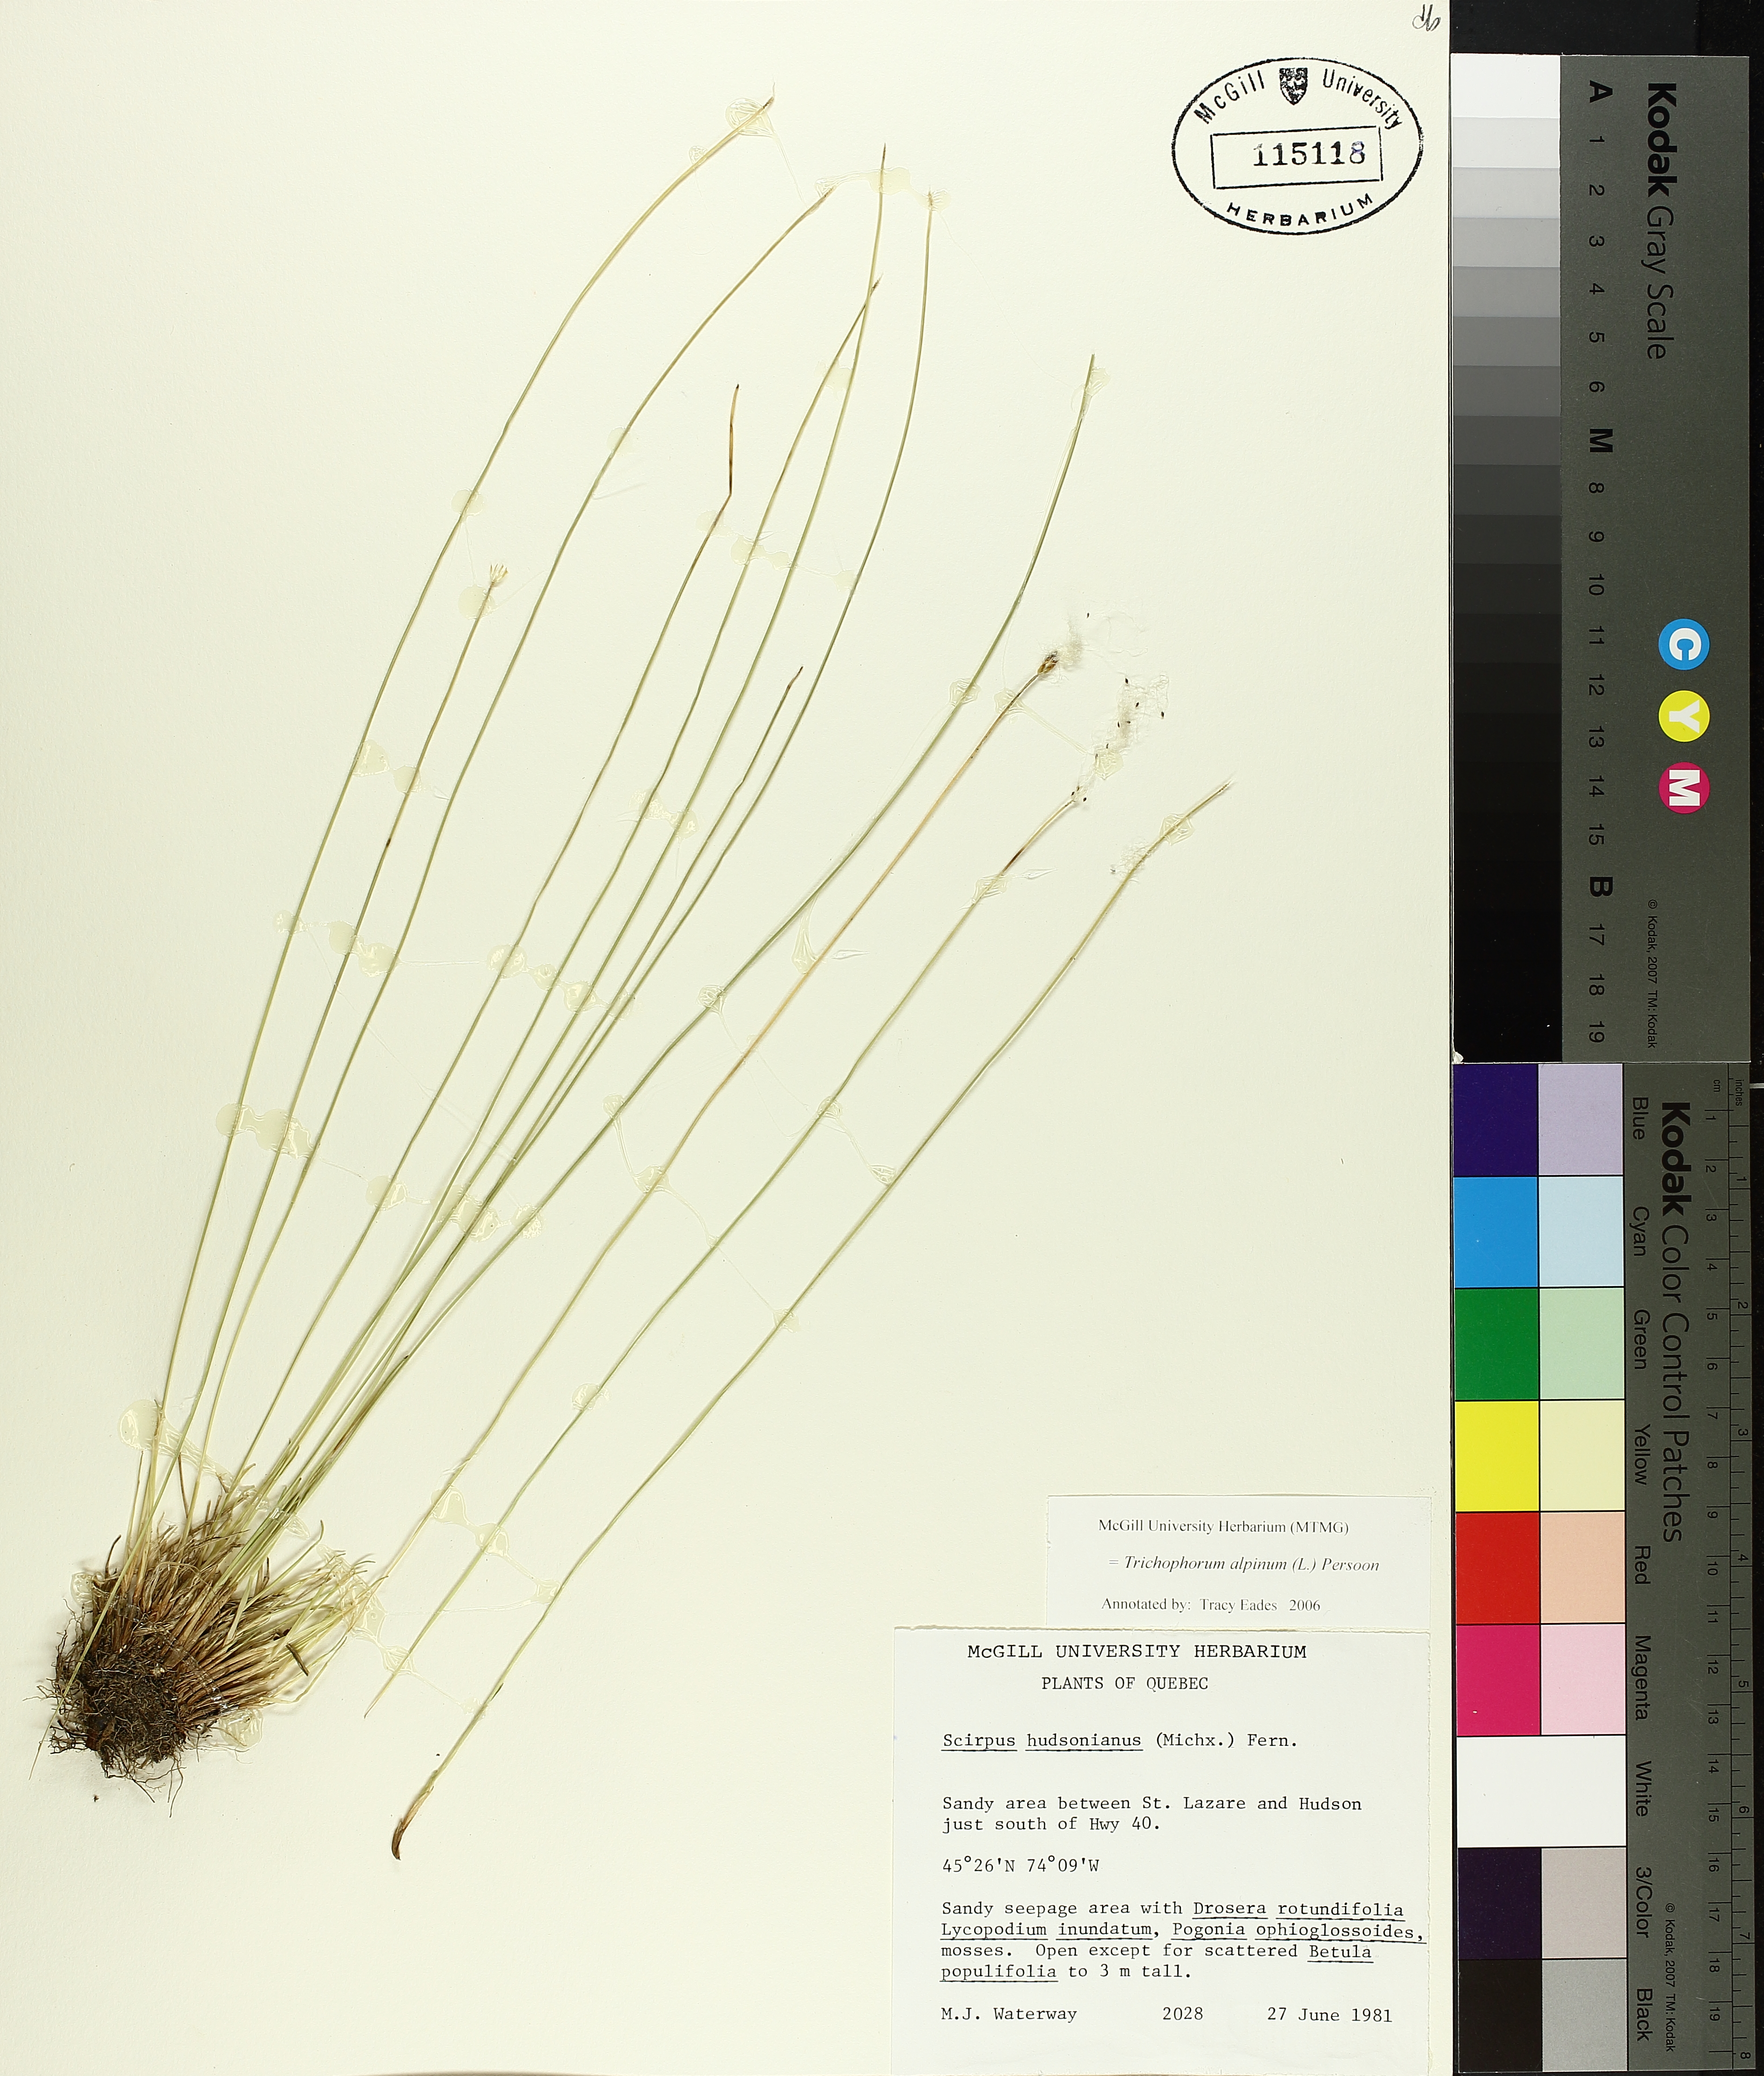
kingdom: Plantae
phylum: Tracheophyta
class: Liliopsida
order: Poales
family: Cyperaceae
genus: Trichophorum
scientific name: Trichophorum alpinum
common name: Alpine bulrush
